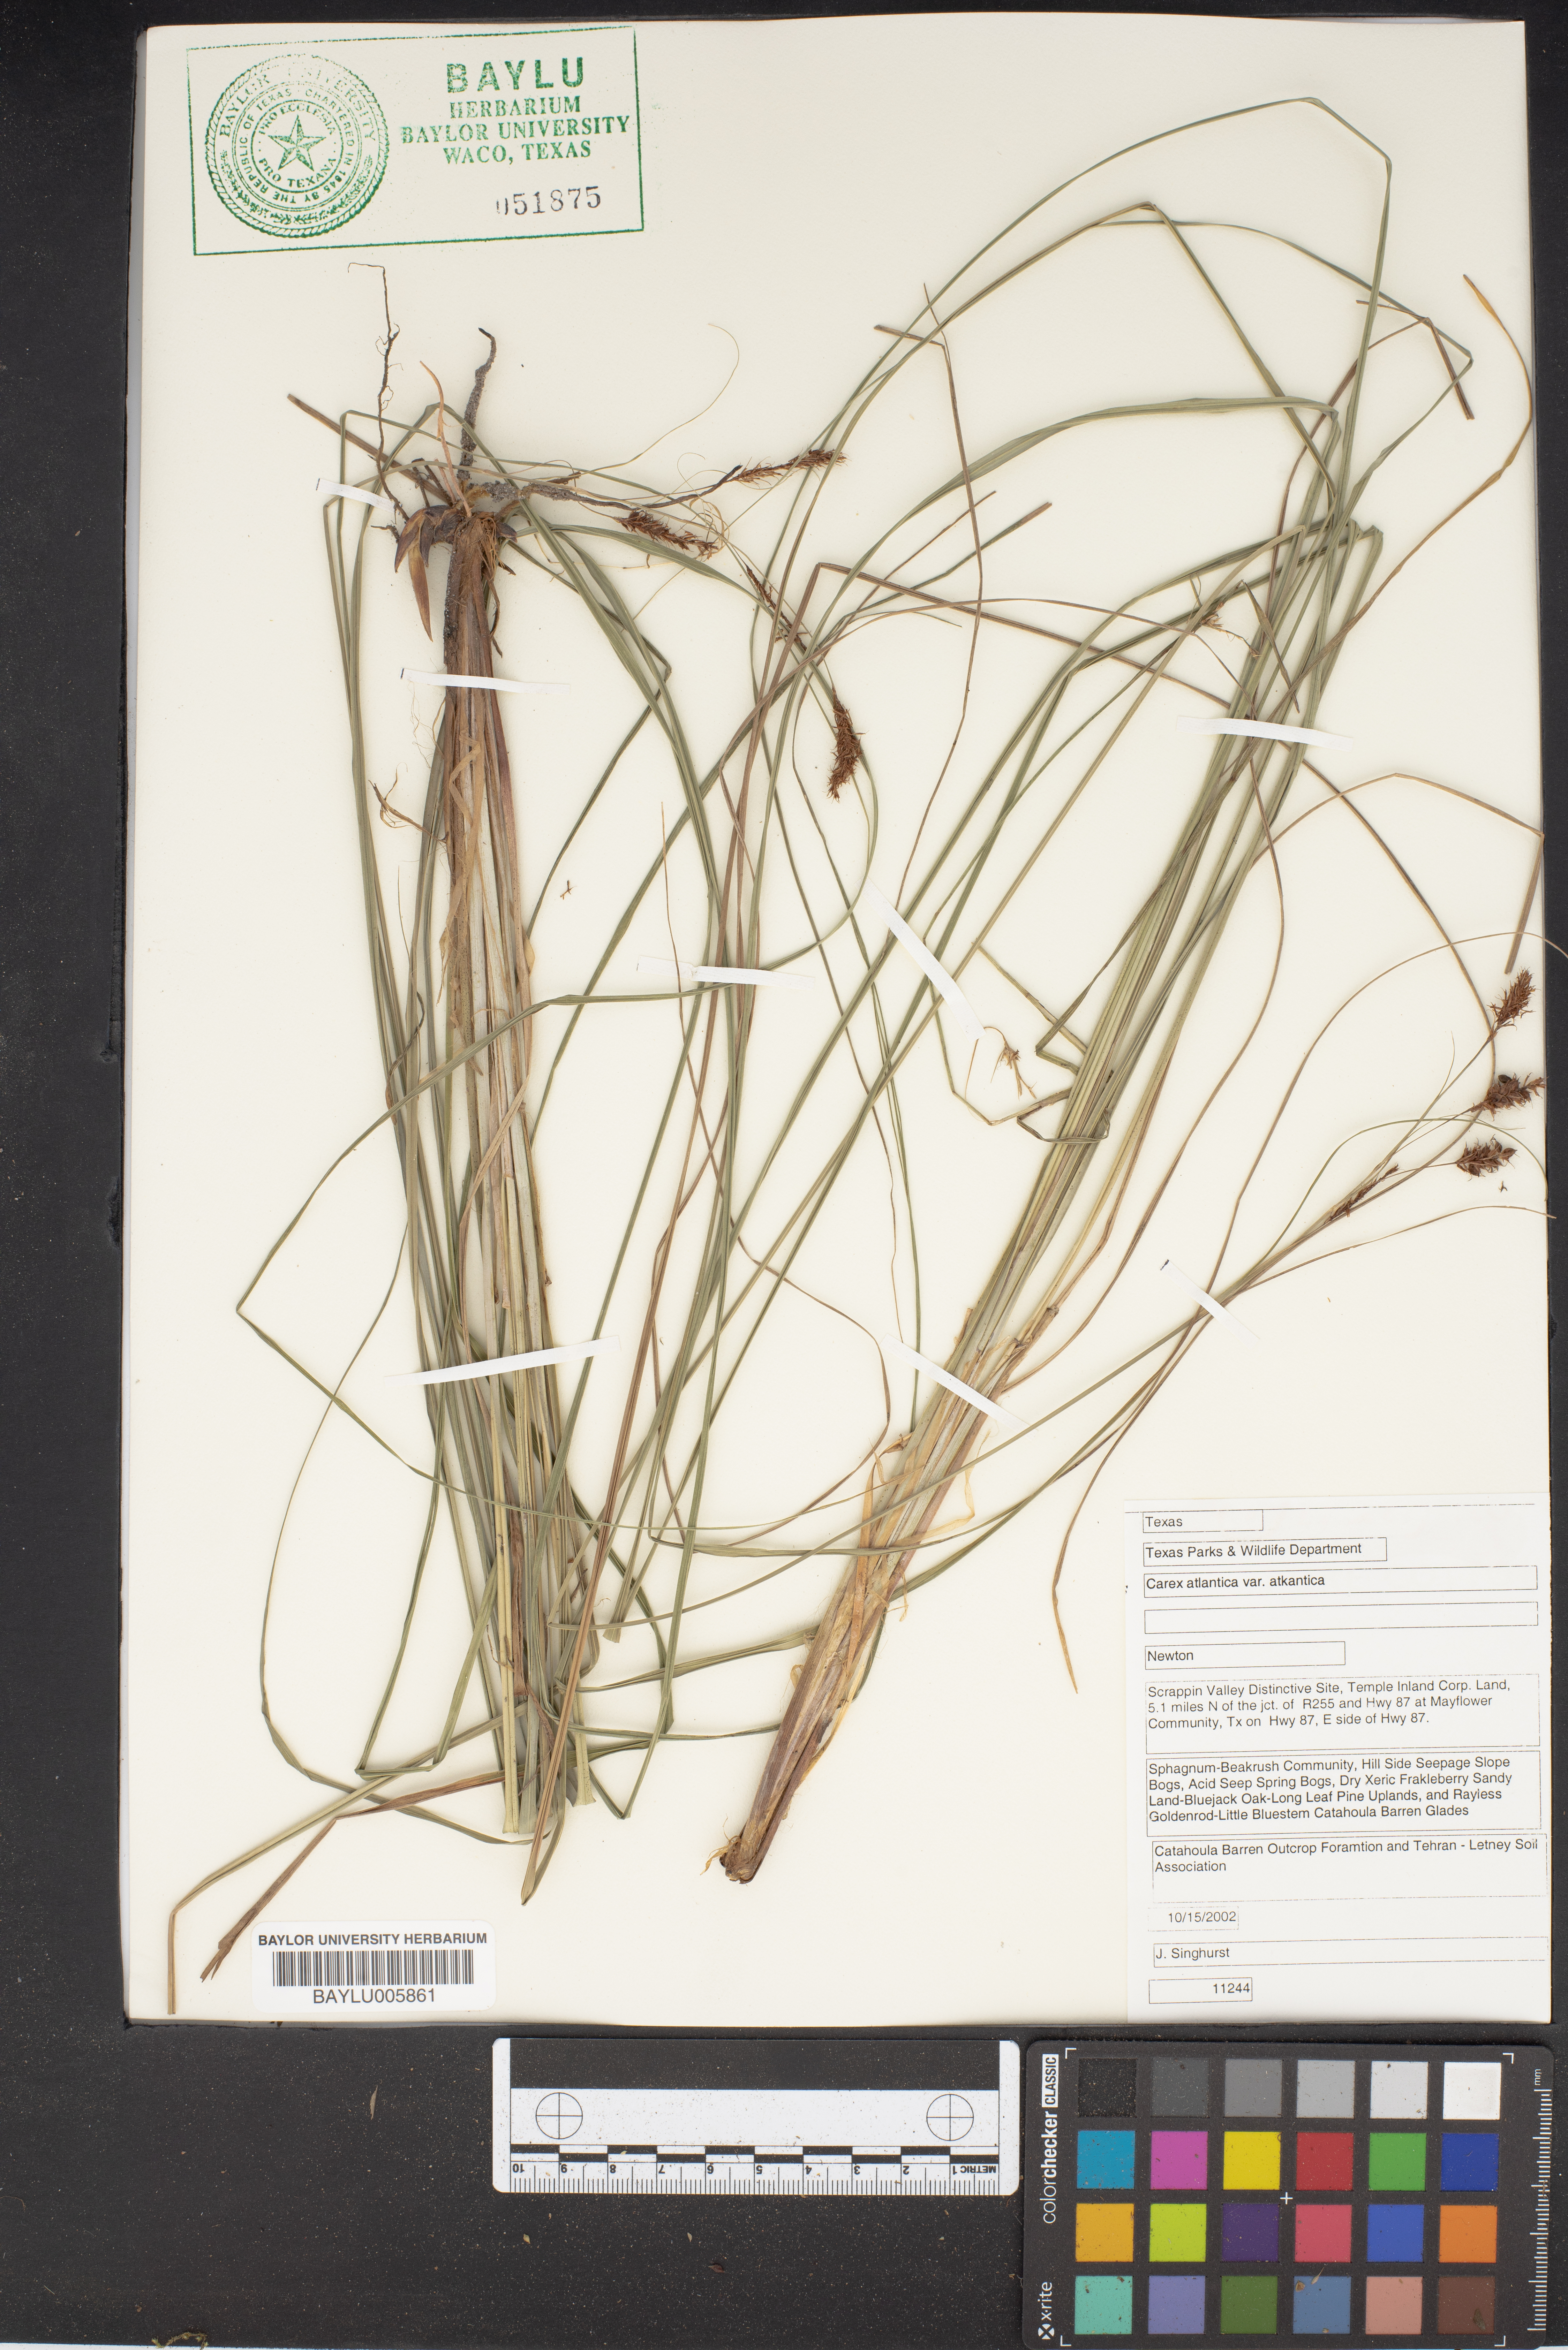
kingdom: Plantae
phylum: Tracheophyta
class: Liliopsida
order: Poales
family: Cyperaceae
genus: Carex
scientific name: Carex atlantica
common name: Atlantic sedge
